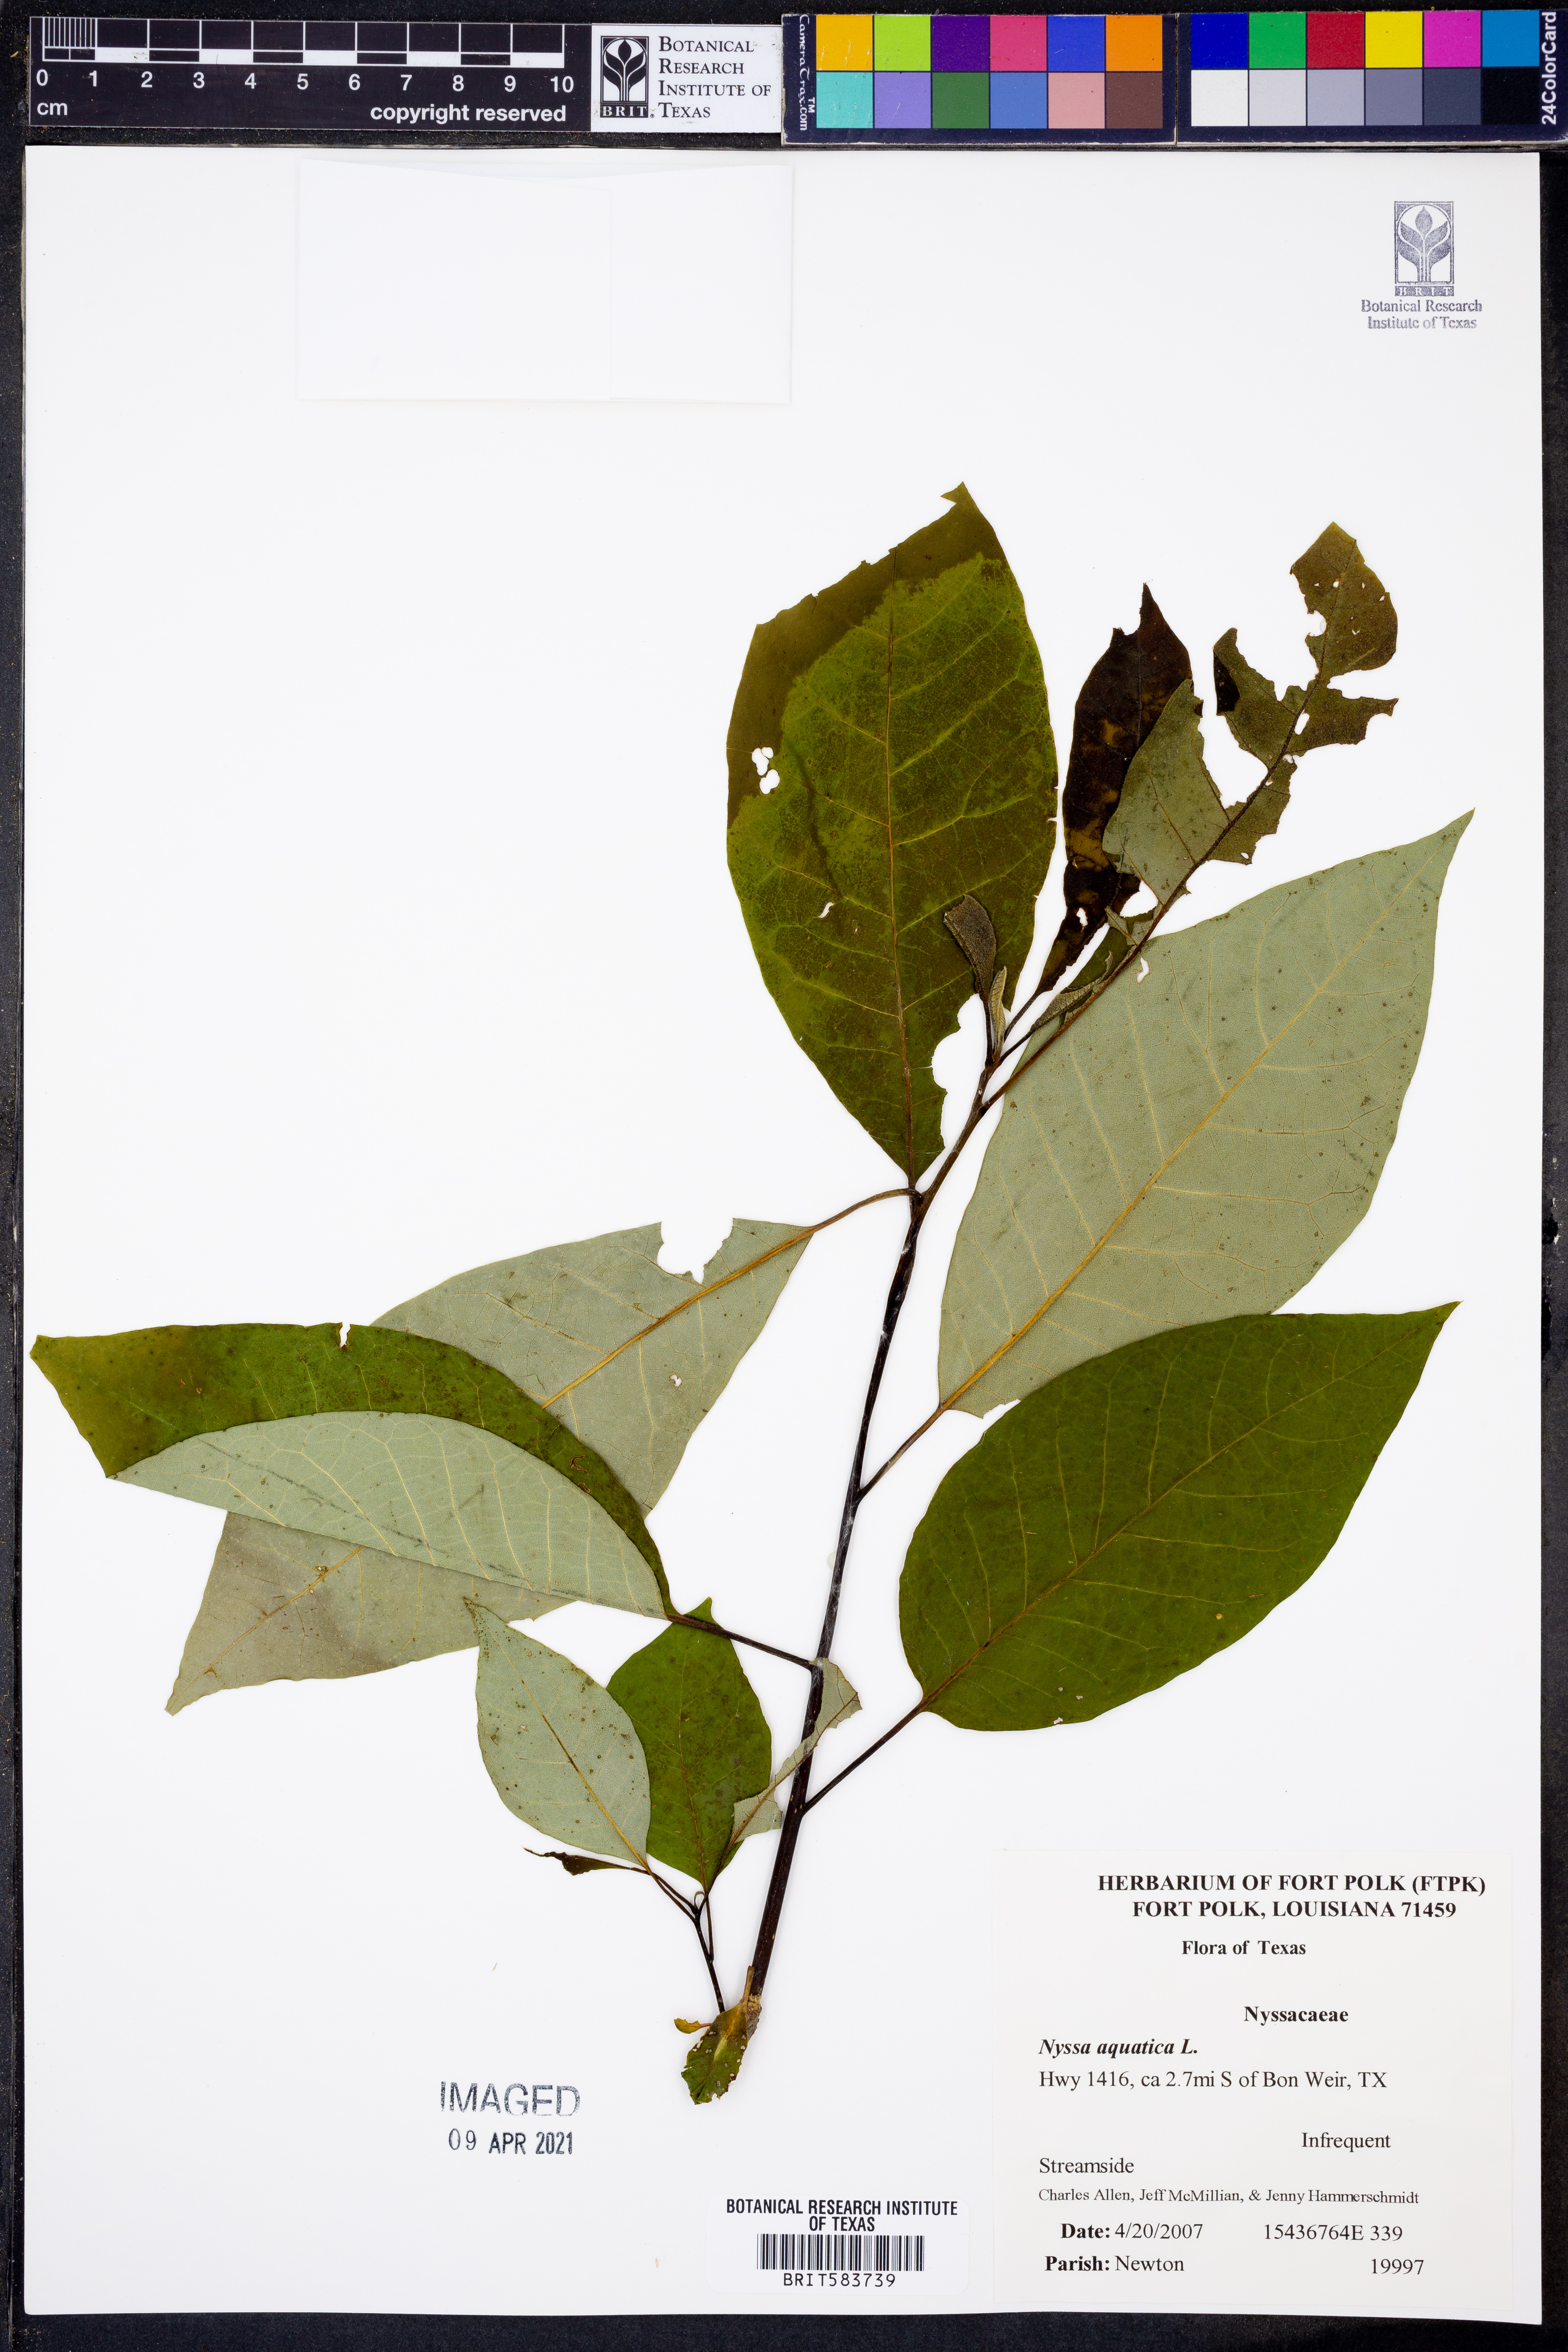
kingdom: Plantae
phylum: Tracheophyta
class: Magnoliopsida
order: Cornales
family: Nyssaceae
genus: Nyssa
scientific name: Nyssa aquatica
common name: Swamp tupelo
